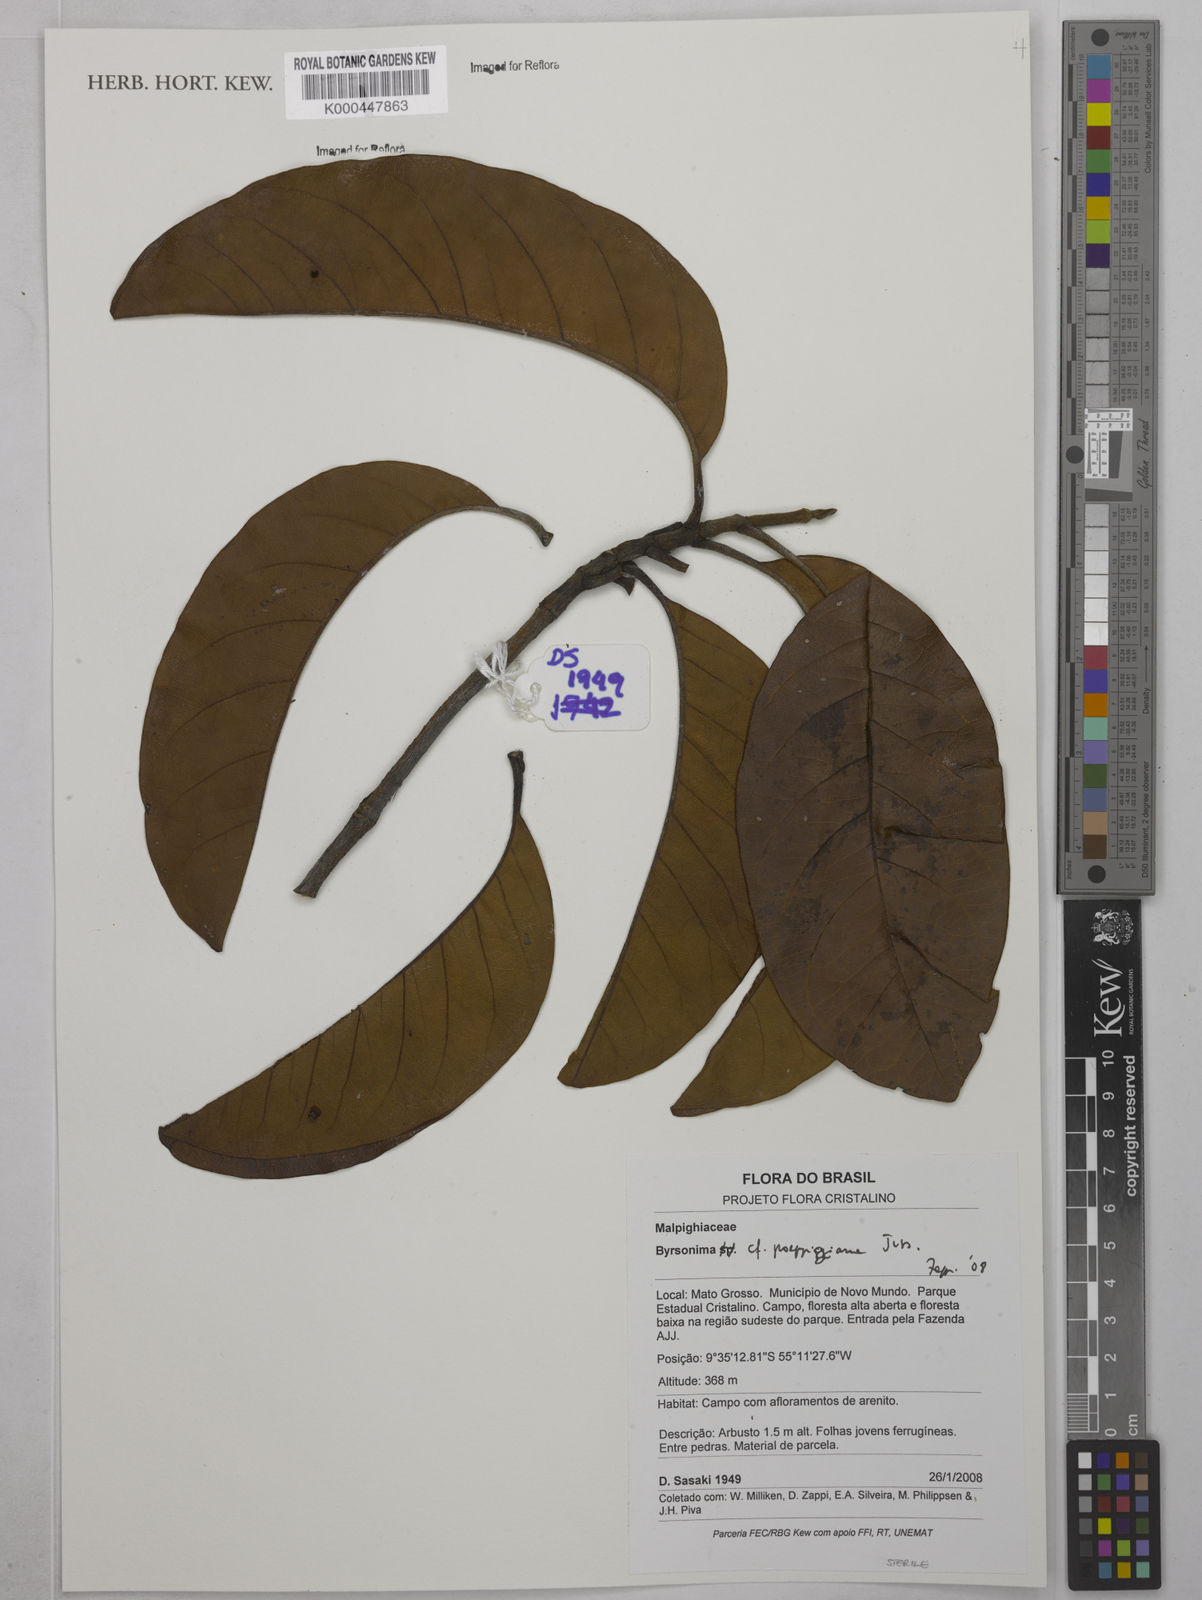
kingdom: Plantae
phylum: Tracheophyta
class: Magnoliopsida
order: Malpighiales
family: Malpighiaceae
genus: Byrsonima
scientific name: Byrsonima poeppigiana
